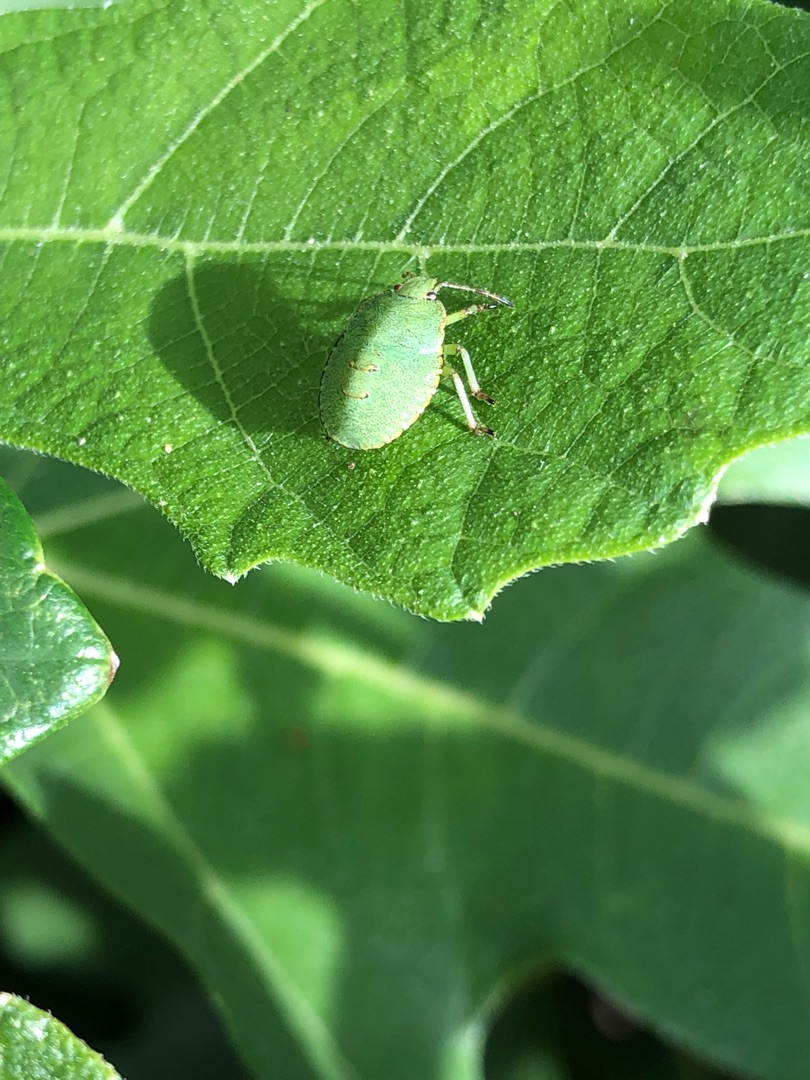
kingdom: Animalia
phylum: Arthropoda
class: Insecta
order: Hemiptera
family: Pentatomidae
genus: Palomena
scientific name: Palomena prasina
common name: Grøn bredtæge
